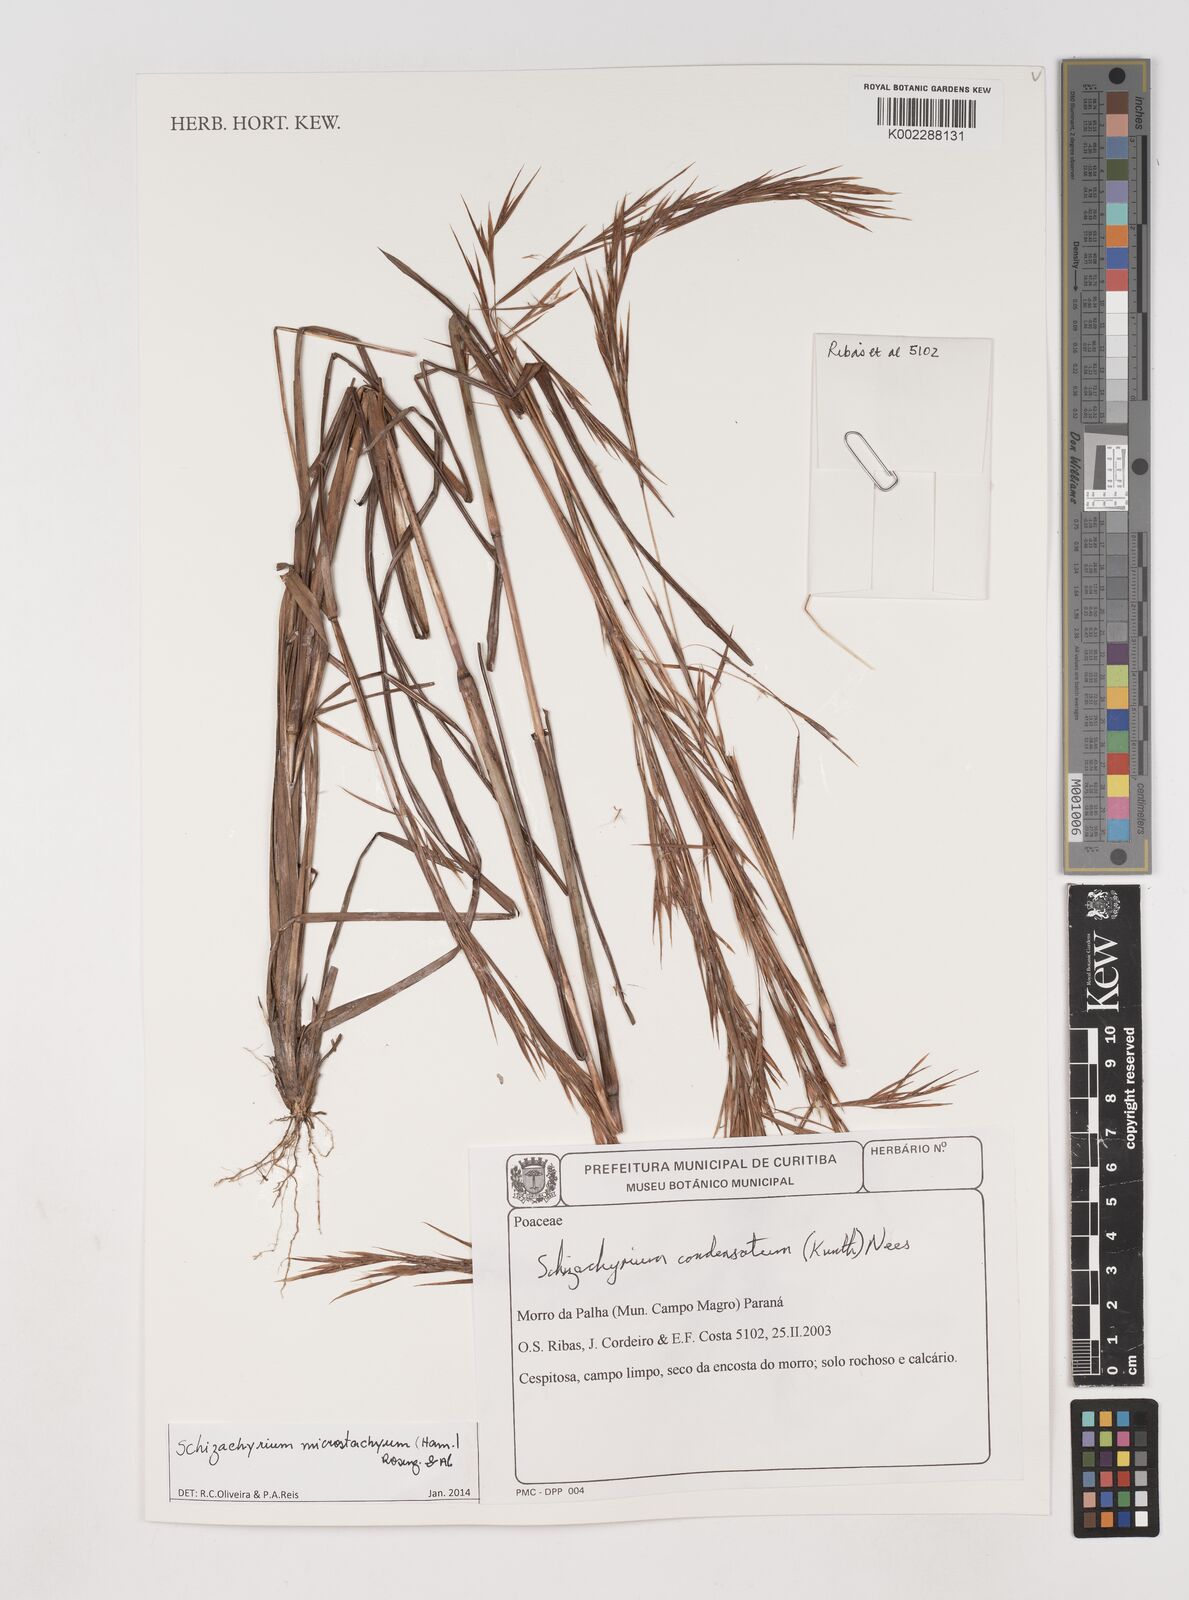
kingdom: Plantae
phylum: Tracheophyta
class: Liliopsida
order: Poales
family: Poaceae
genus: Schizachyrium
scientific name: Schizachyrium microstachyum
